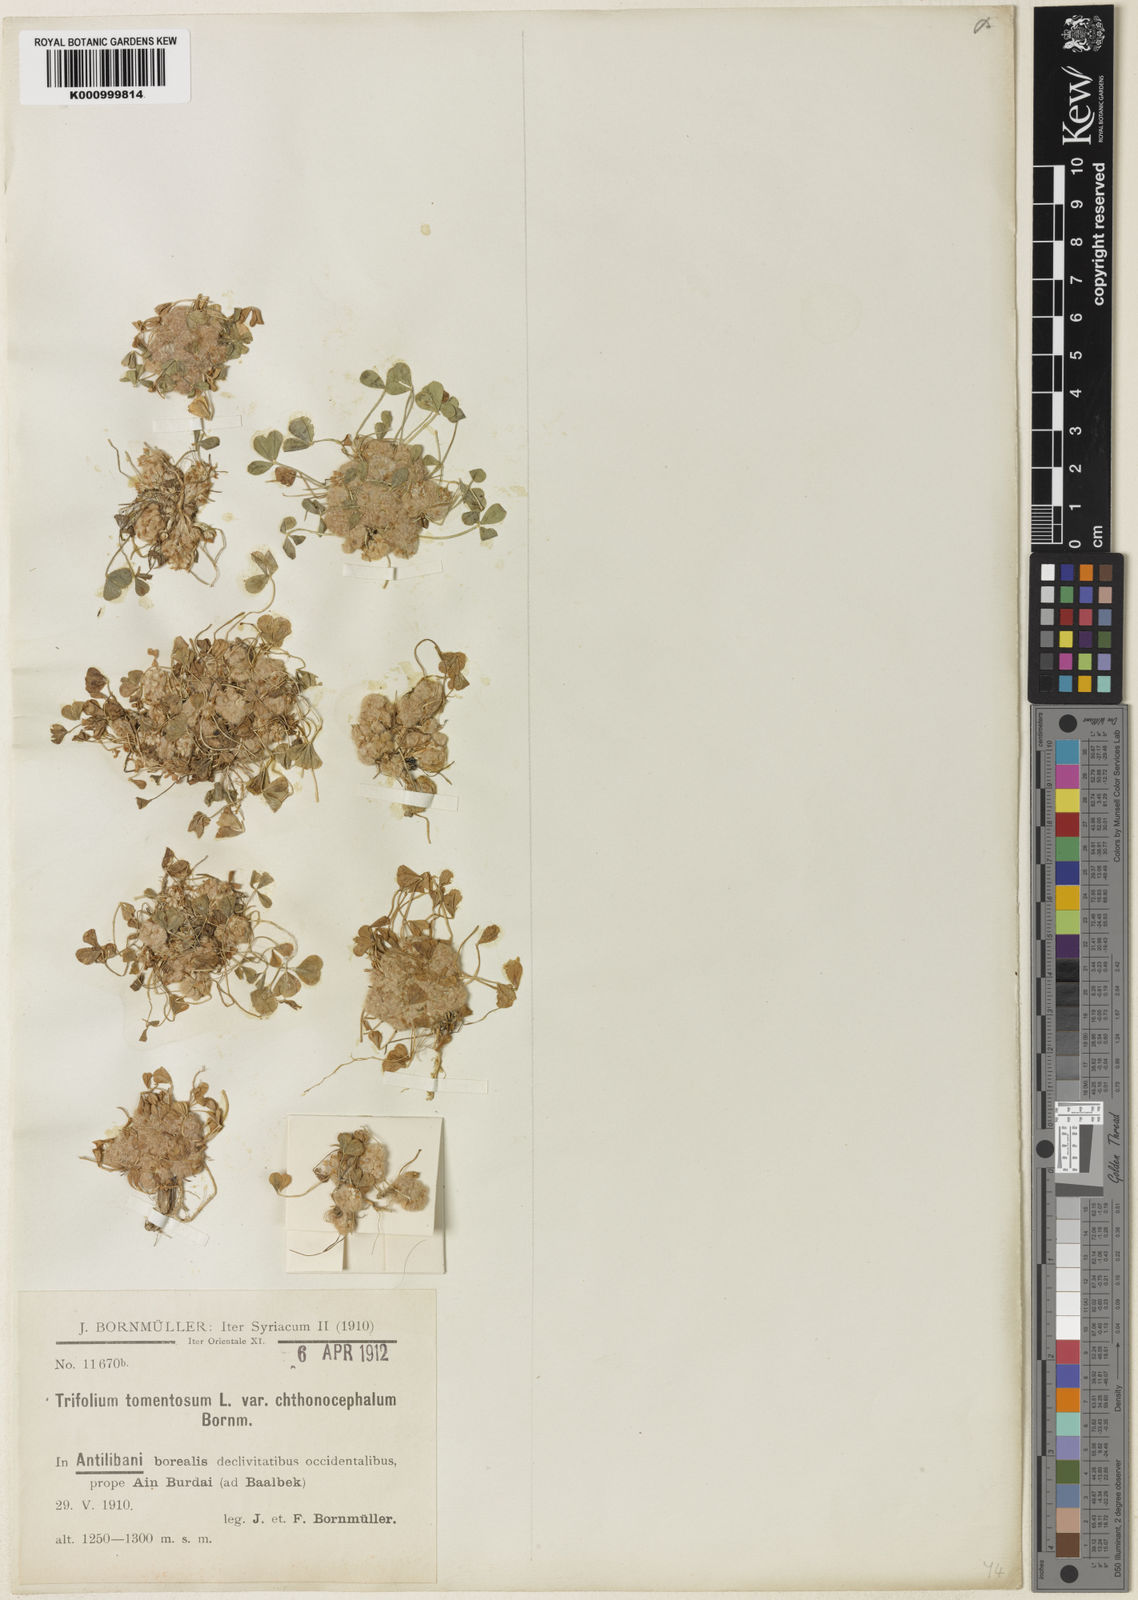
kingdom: Plantae
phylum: Tracheophyta
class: Magnoliopsida
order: Fabales
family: Fabaceae
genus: Trifolium
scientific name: Trifolium tomentosum
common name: Woolly clover
